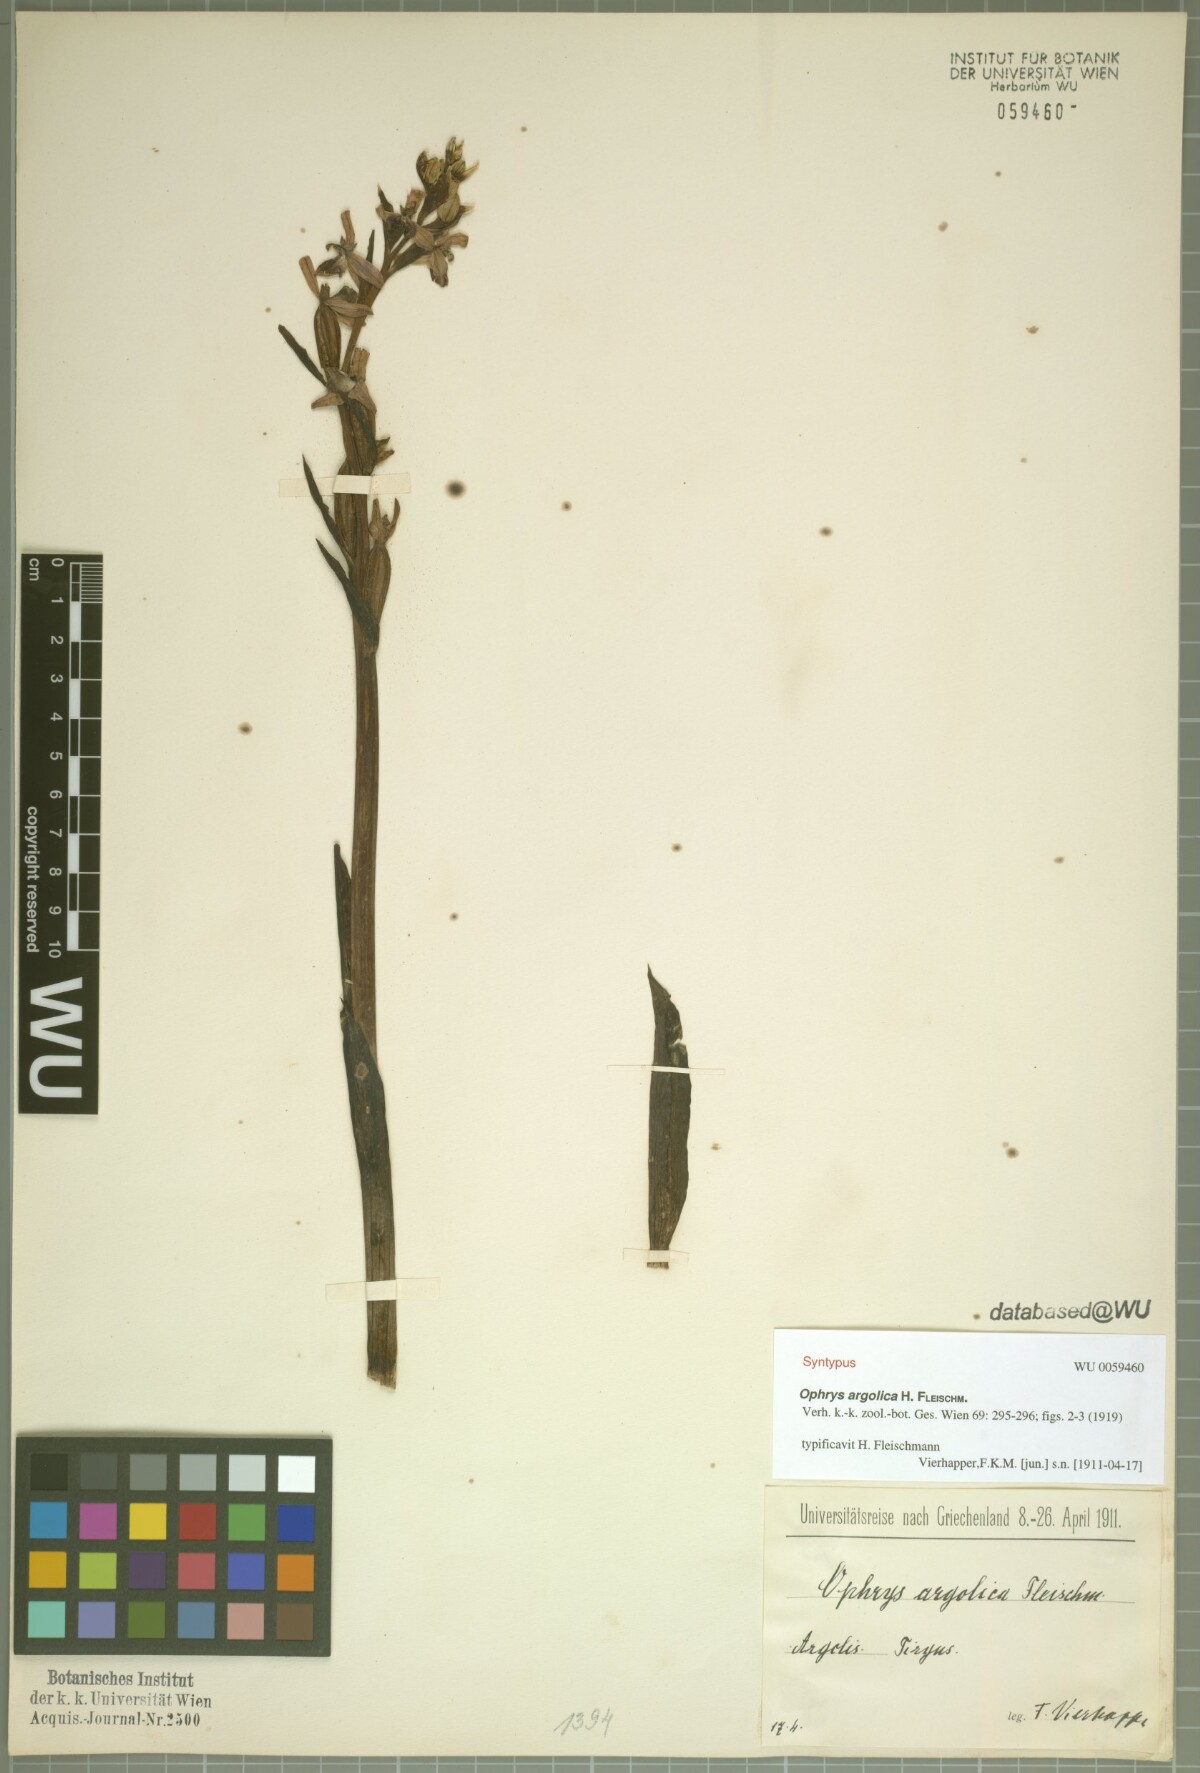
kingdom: Plantae
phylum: Tracheophyta
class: Liliopsida
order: Asparagales
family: Orchidaceae
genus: Ophrys
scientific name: Ophrys argolica
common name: Argolic ophrys
